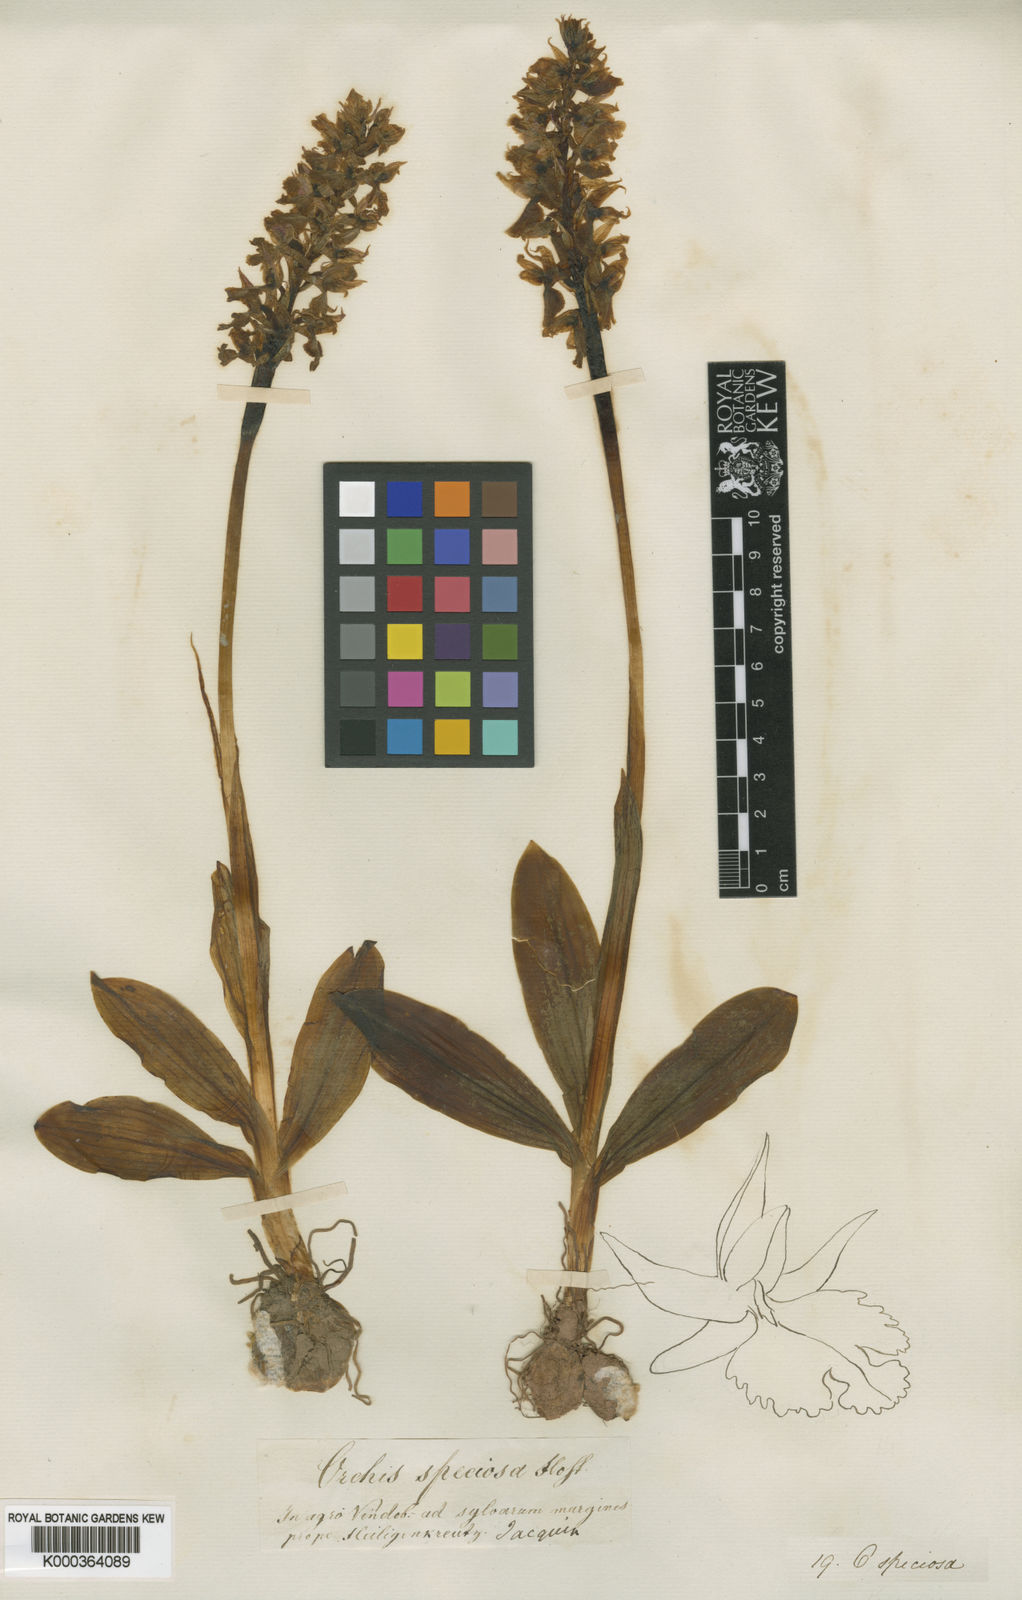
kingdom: Plantae
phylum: Tracheophyta
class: Liliopsida
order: Asparagales
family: Orchidaceae
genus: Orchis
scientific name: Orchis mascula
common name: Early-purple orchid
